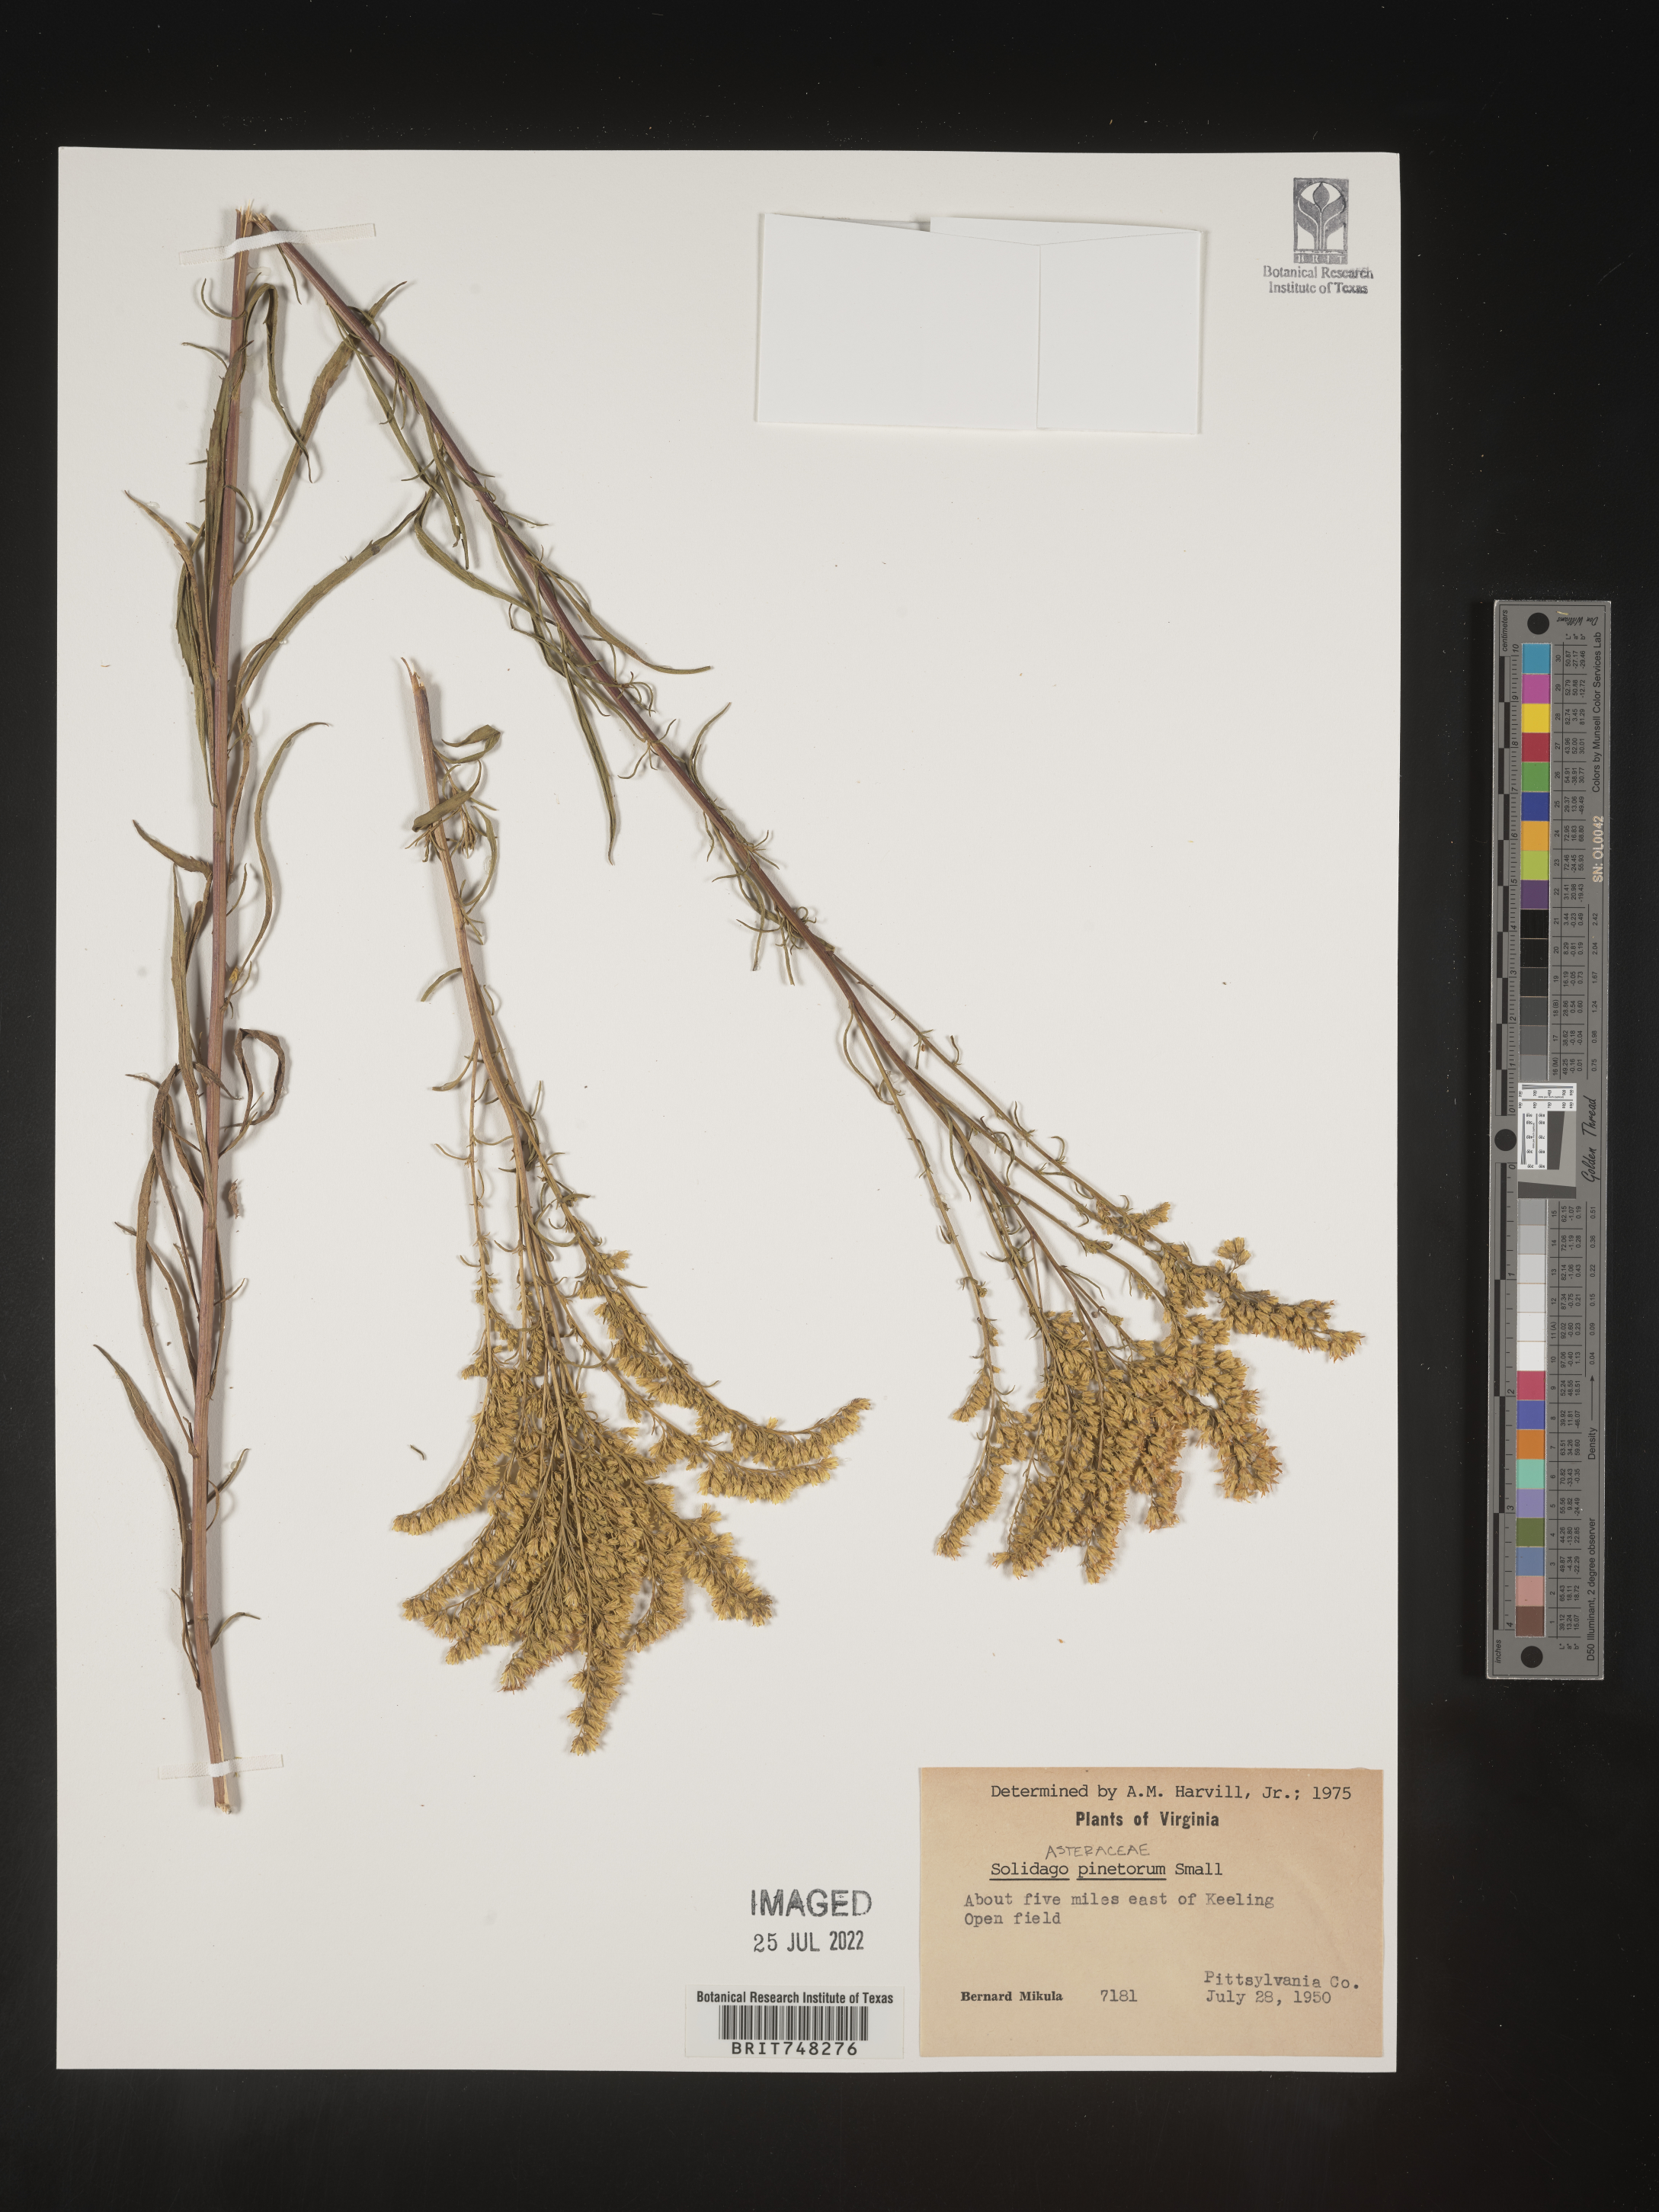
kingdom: Plantae
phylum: Tracheophyta
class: Magnoliopsida
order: Asterales
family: Asteraceae
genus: Solidago
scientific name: Solidago pinetorum
